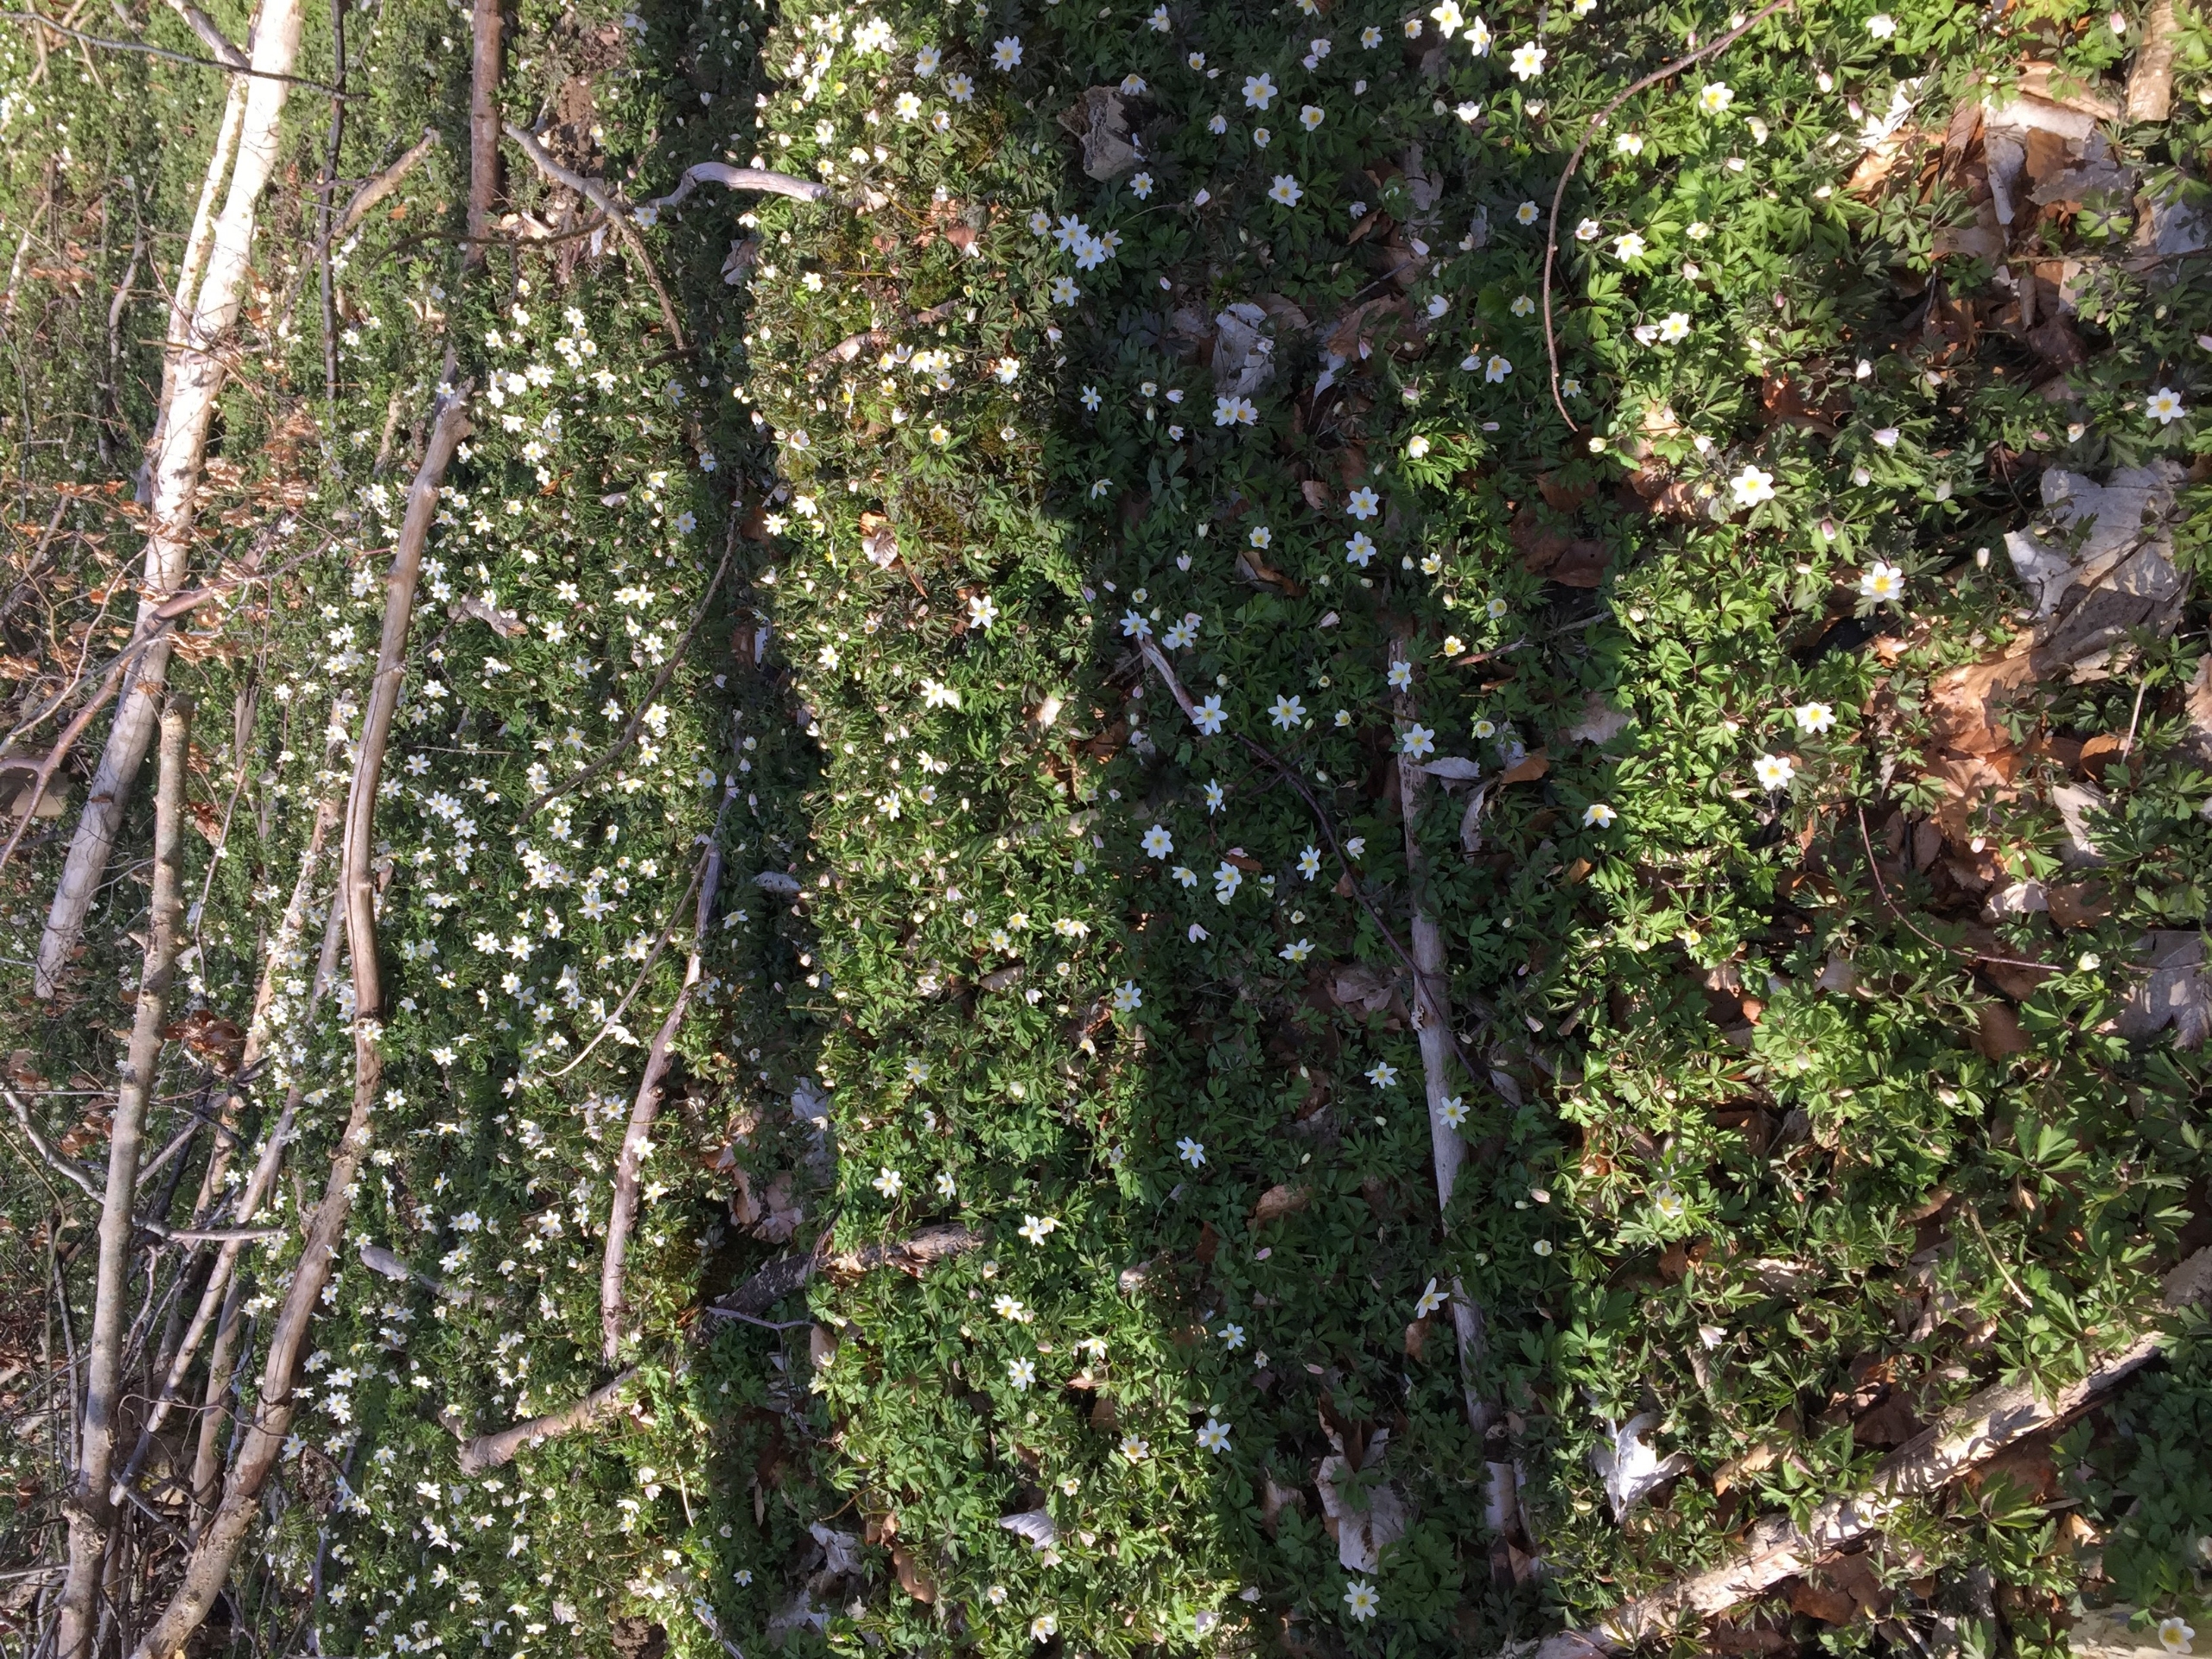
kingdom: Plantae
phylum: Tracheophyta
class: Magnoliopsida
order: Ranunculales
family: Ranunculaceae
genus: Anemone
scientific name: Anemone nemorosa
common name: Hvid anemone
